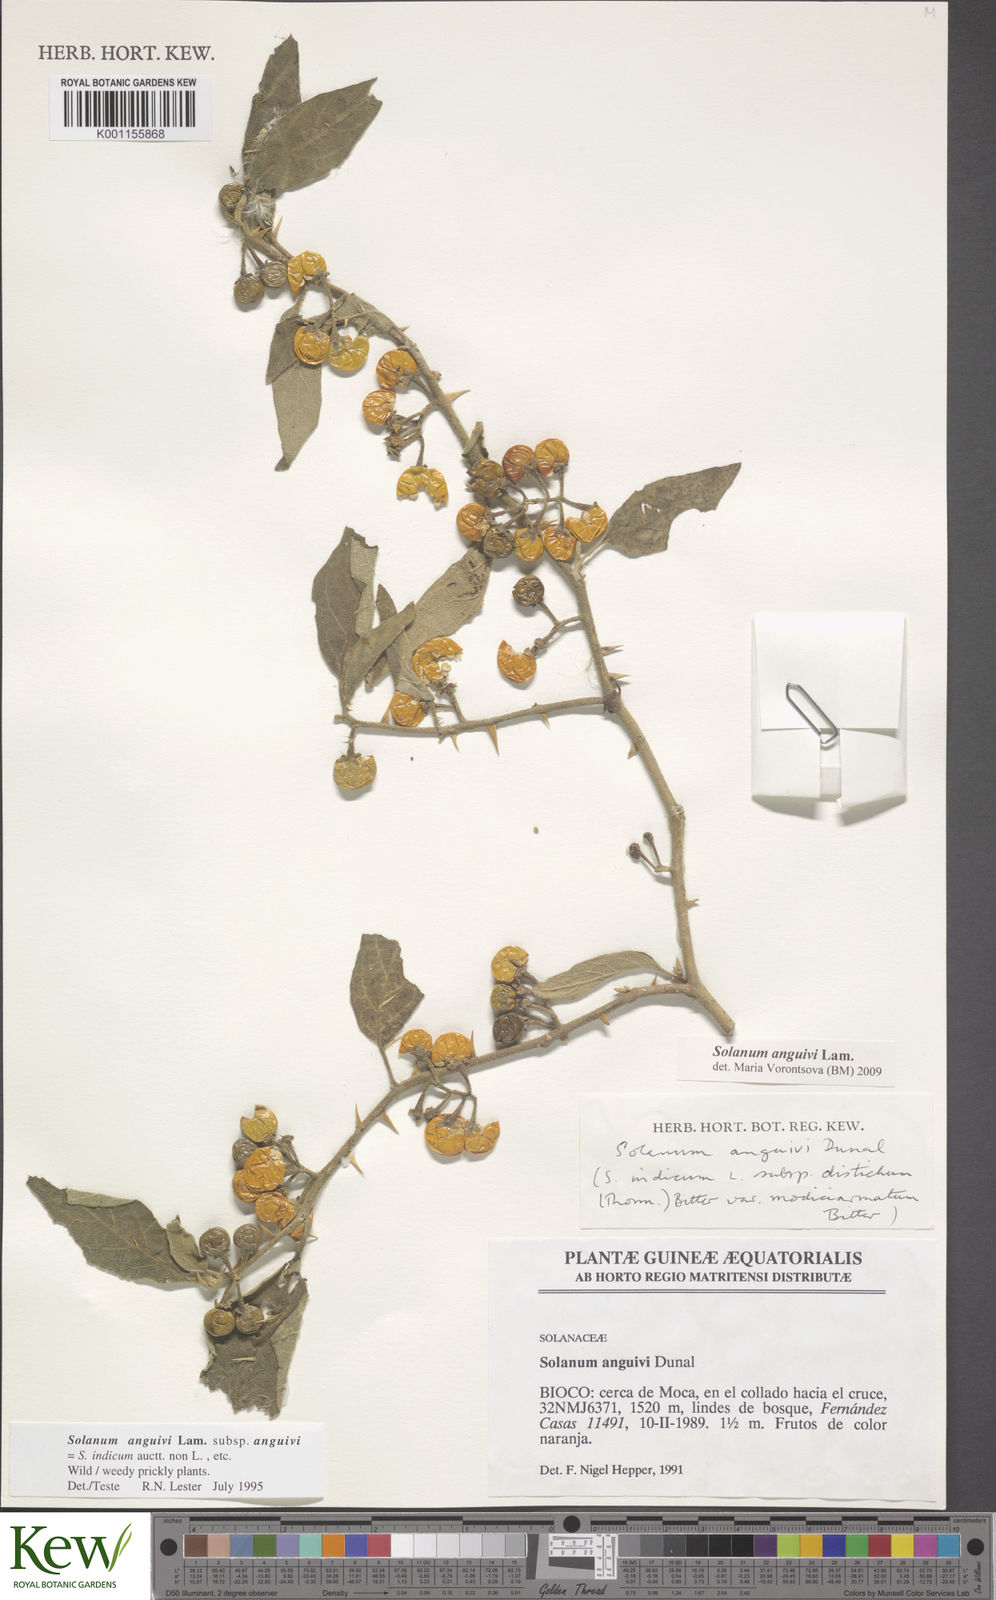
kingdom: Plantae
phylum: Tracheophyta
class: Magnoliopsida
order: Solanales
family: Solanaceae
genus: Solanum
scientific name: Solanum anguivi
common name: Forest bitterberry
